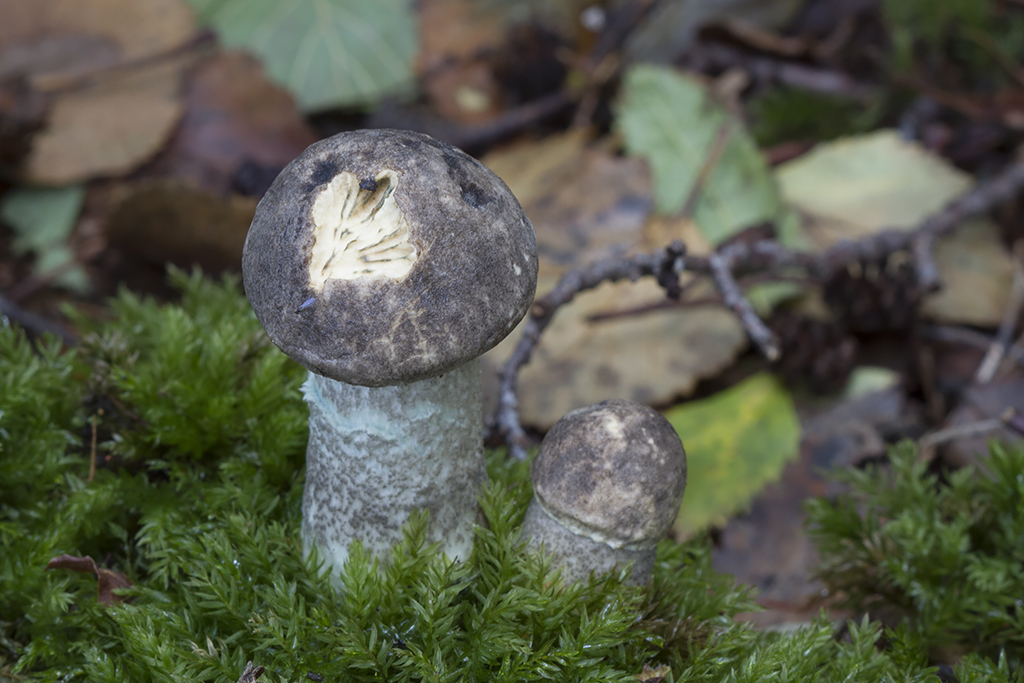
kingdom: Fungi
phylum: Basidiomycota
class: Agaricomycetes
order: Boletales
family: Boletaceae
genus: Leccinum
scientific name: Leccinum variicolor
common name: flammet skælrørhat
